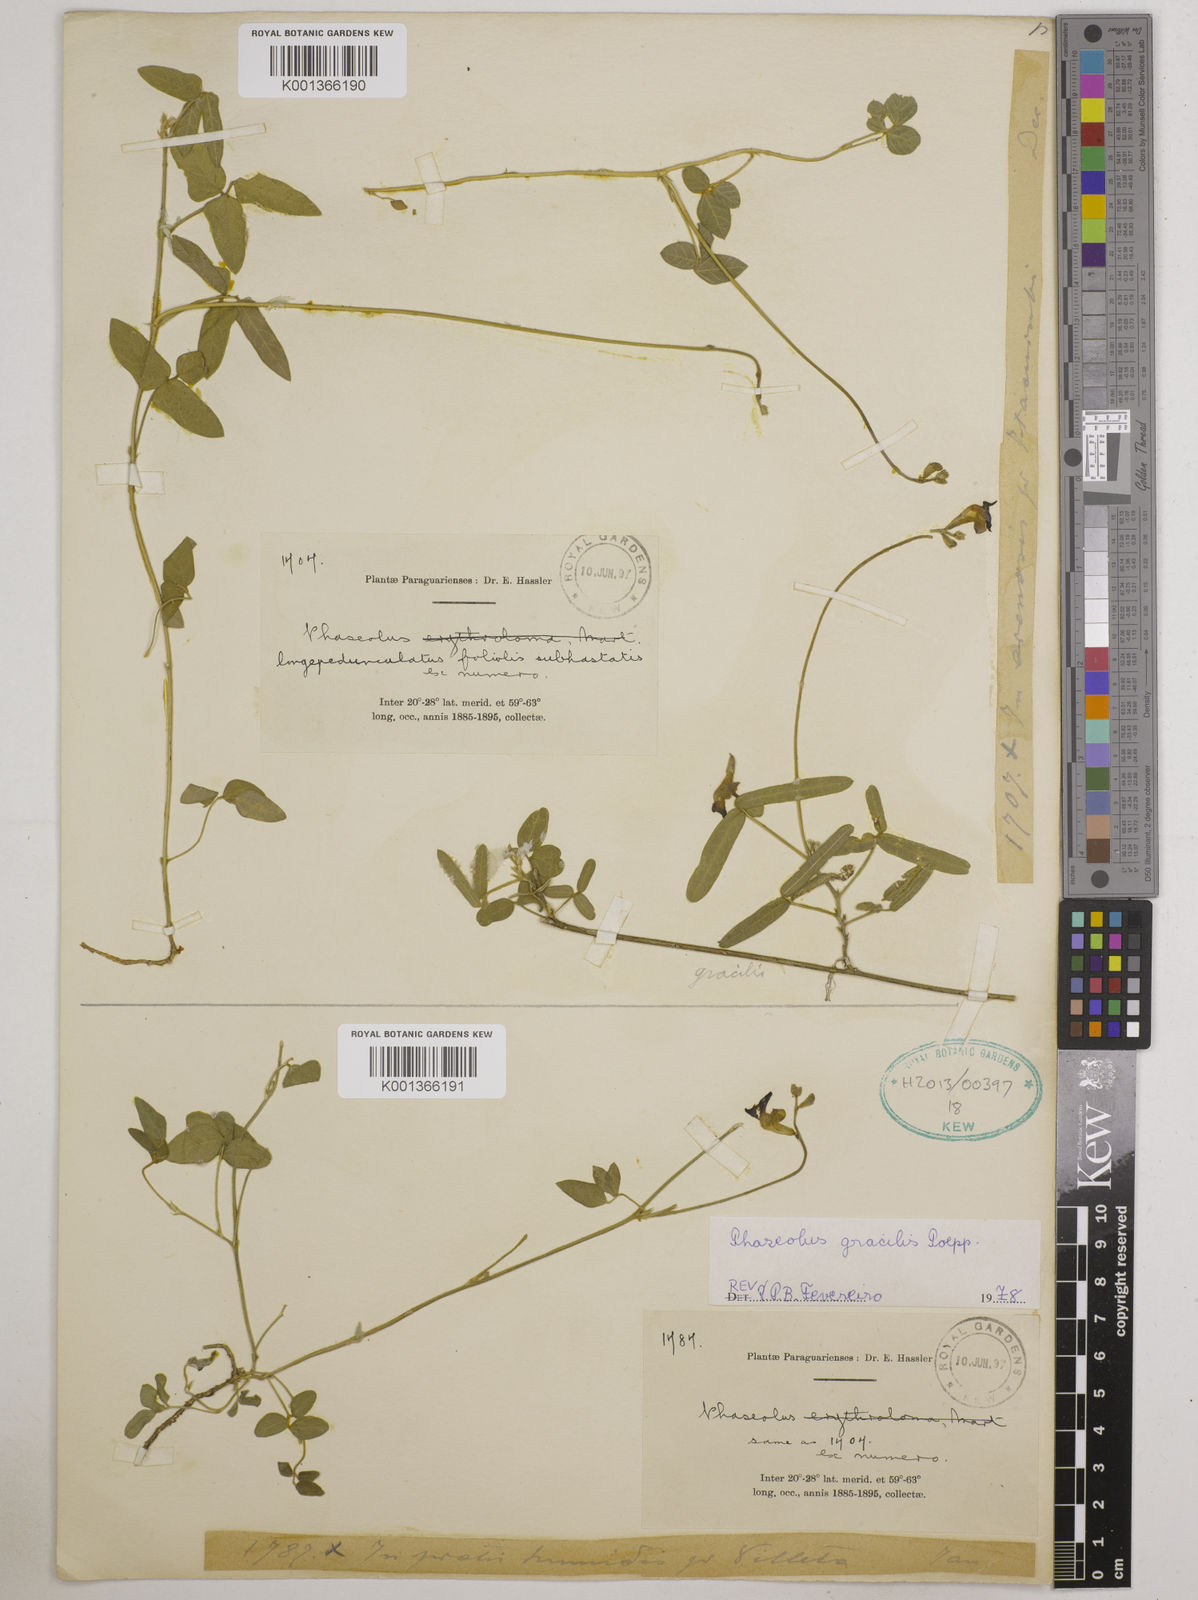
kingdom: Plantae
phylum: Tracheophyta
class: Magnoliopsida
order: Fabales
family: Fabaceae
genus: Macroptilium
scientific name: Macroptilium longepedunculatum
